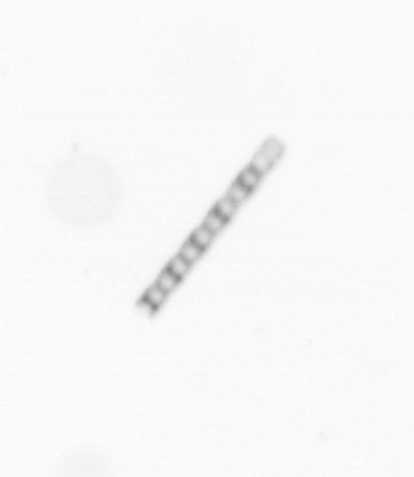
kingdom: Chromista
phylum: Ochrophyta
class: Bacillariophyceae
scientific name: Bacillariophyceae
